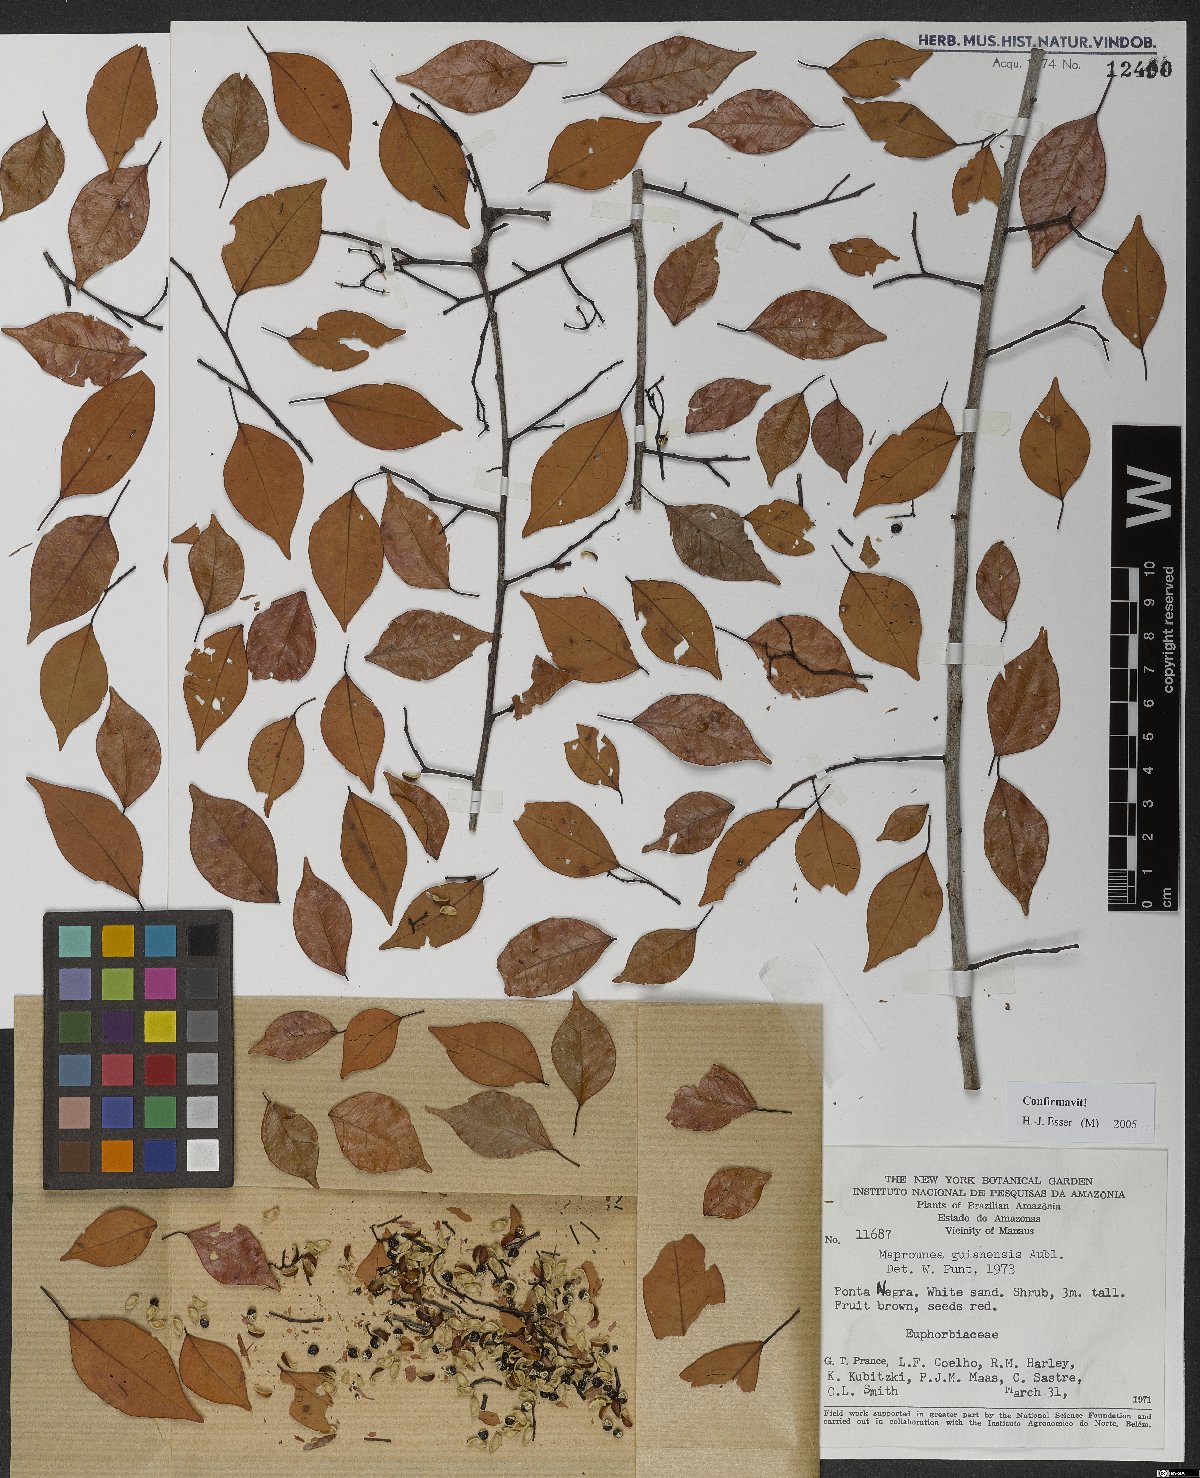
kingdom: Plantae
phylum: Tracheophyta
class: Magnoliopsida
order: Malpighiales
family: Euphorbiaceae
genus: Maprounea
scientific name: Maprounea guianensis
